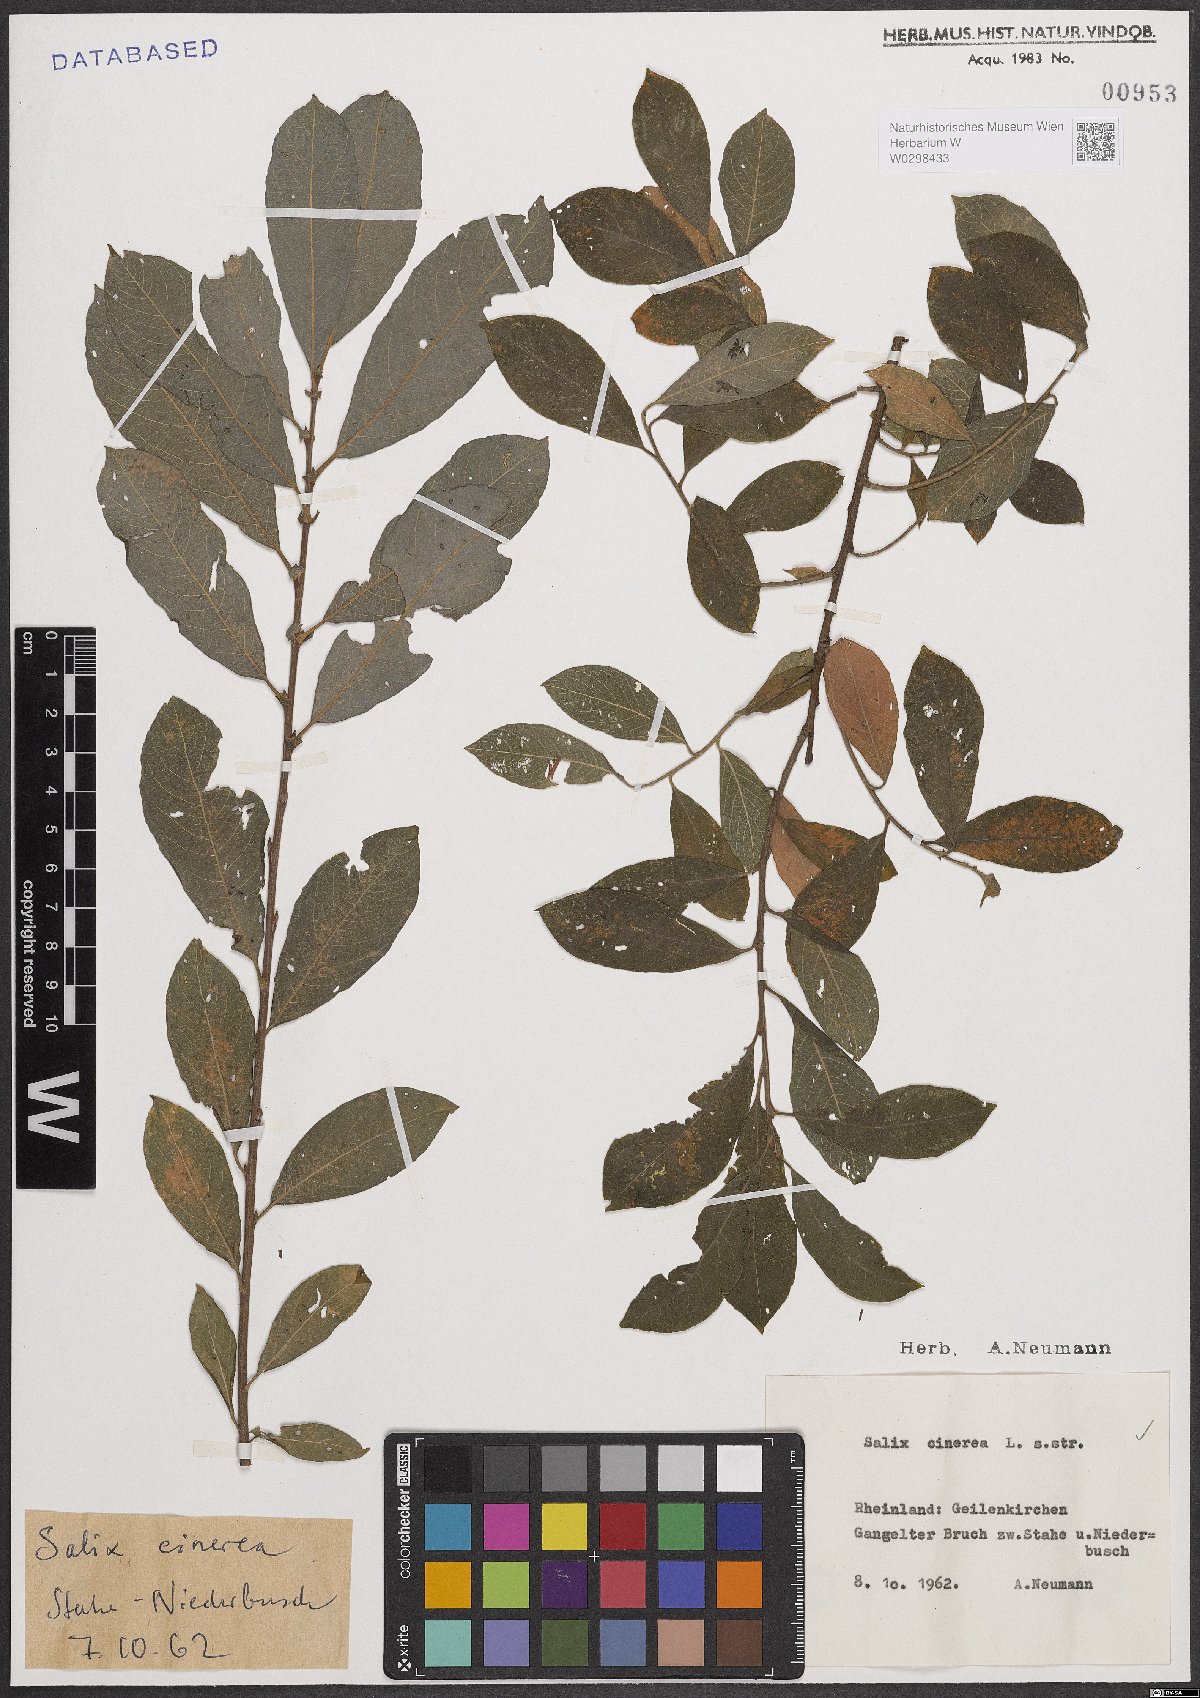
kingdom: Plantae
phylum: Tracheophyta
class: Magnoliopsida
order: Malpighiales
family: Salicaceae
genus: Salix
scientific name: Salix cinerea
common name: Common sallow
